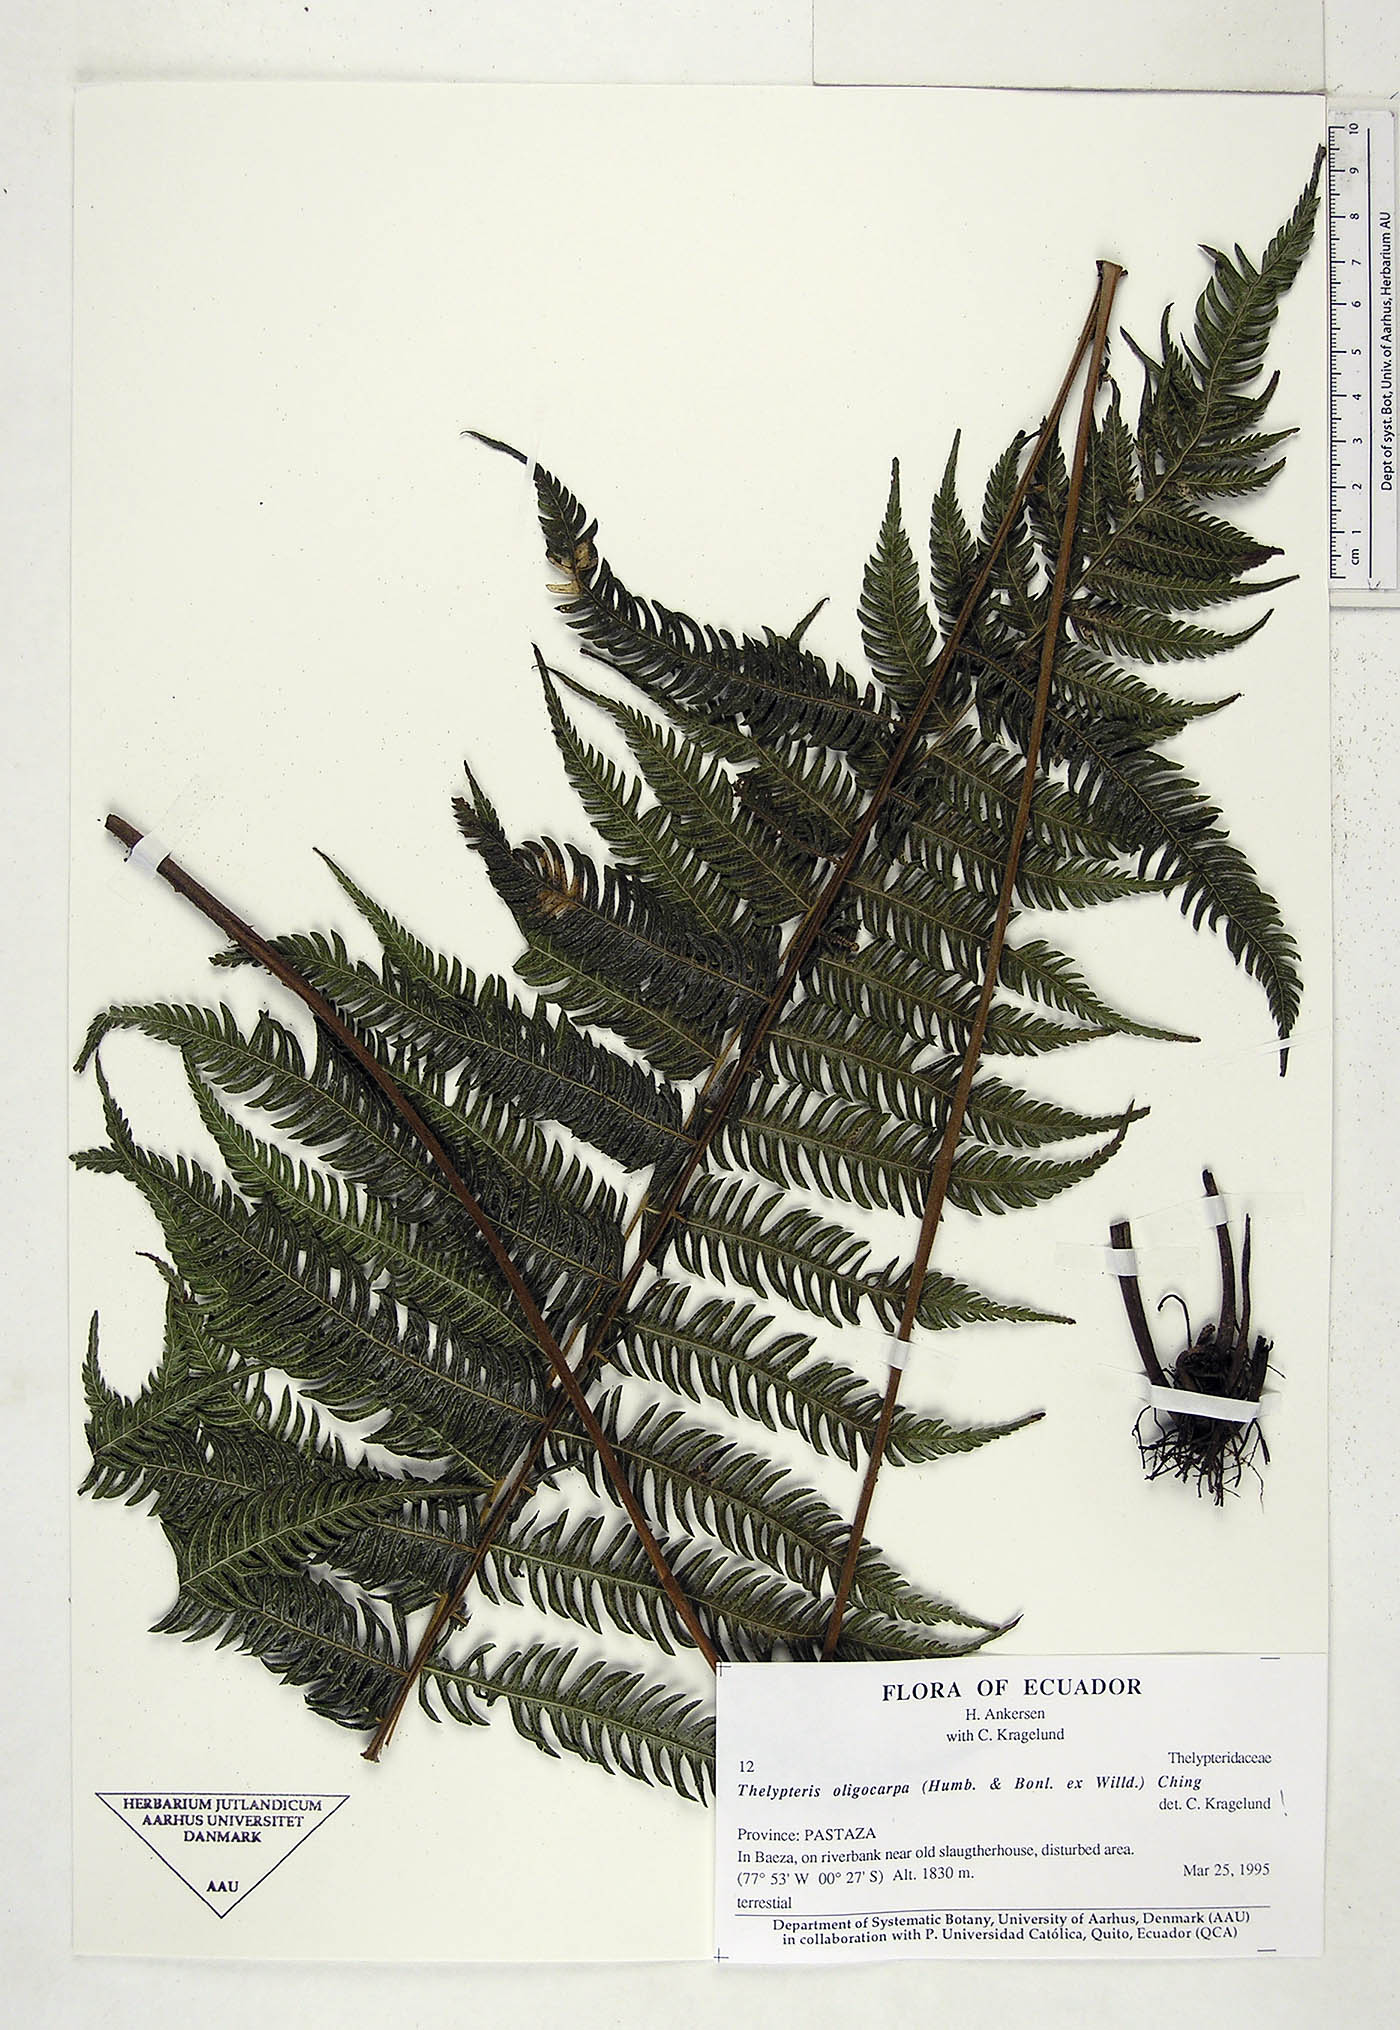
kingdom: Plantae
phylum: Tracheophyta
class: Polypodiopsida
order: Polypodiales
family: Thelypteridaceae
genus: Amauropelta
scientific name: Amauropelta oligocarpa
